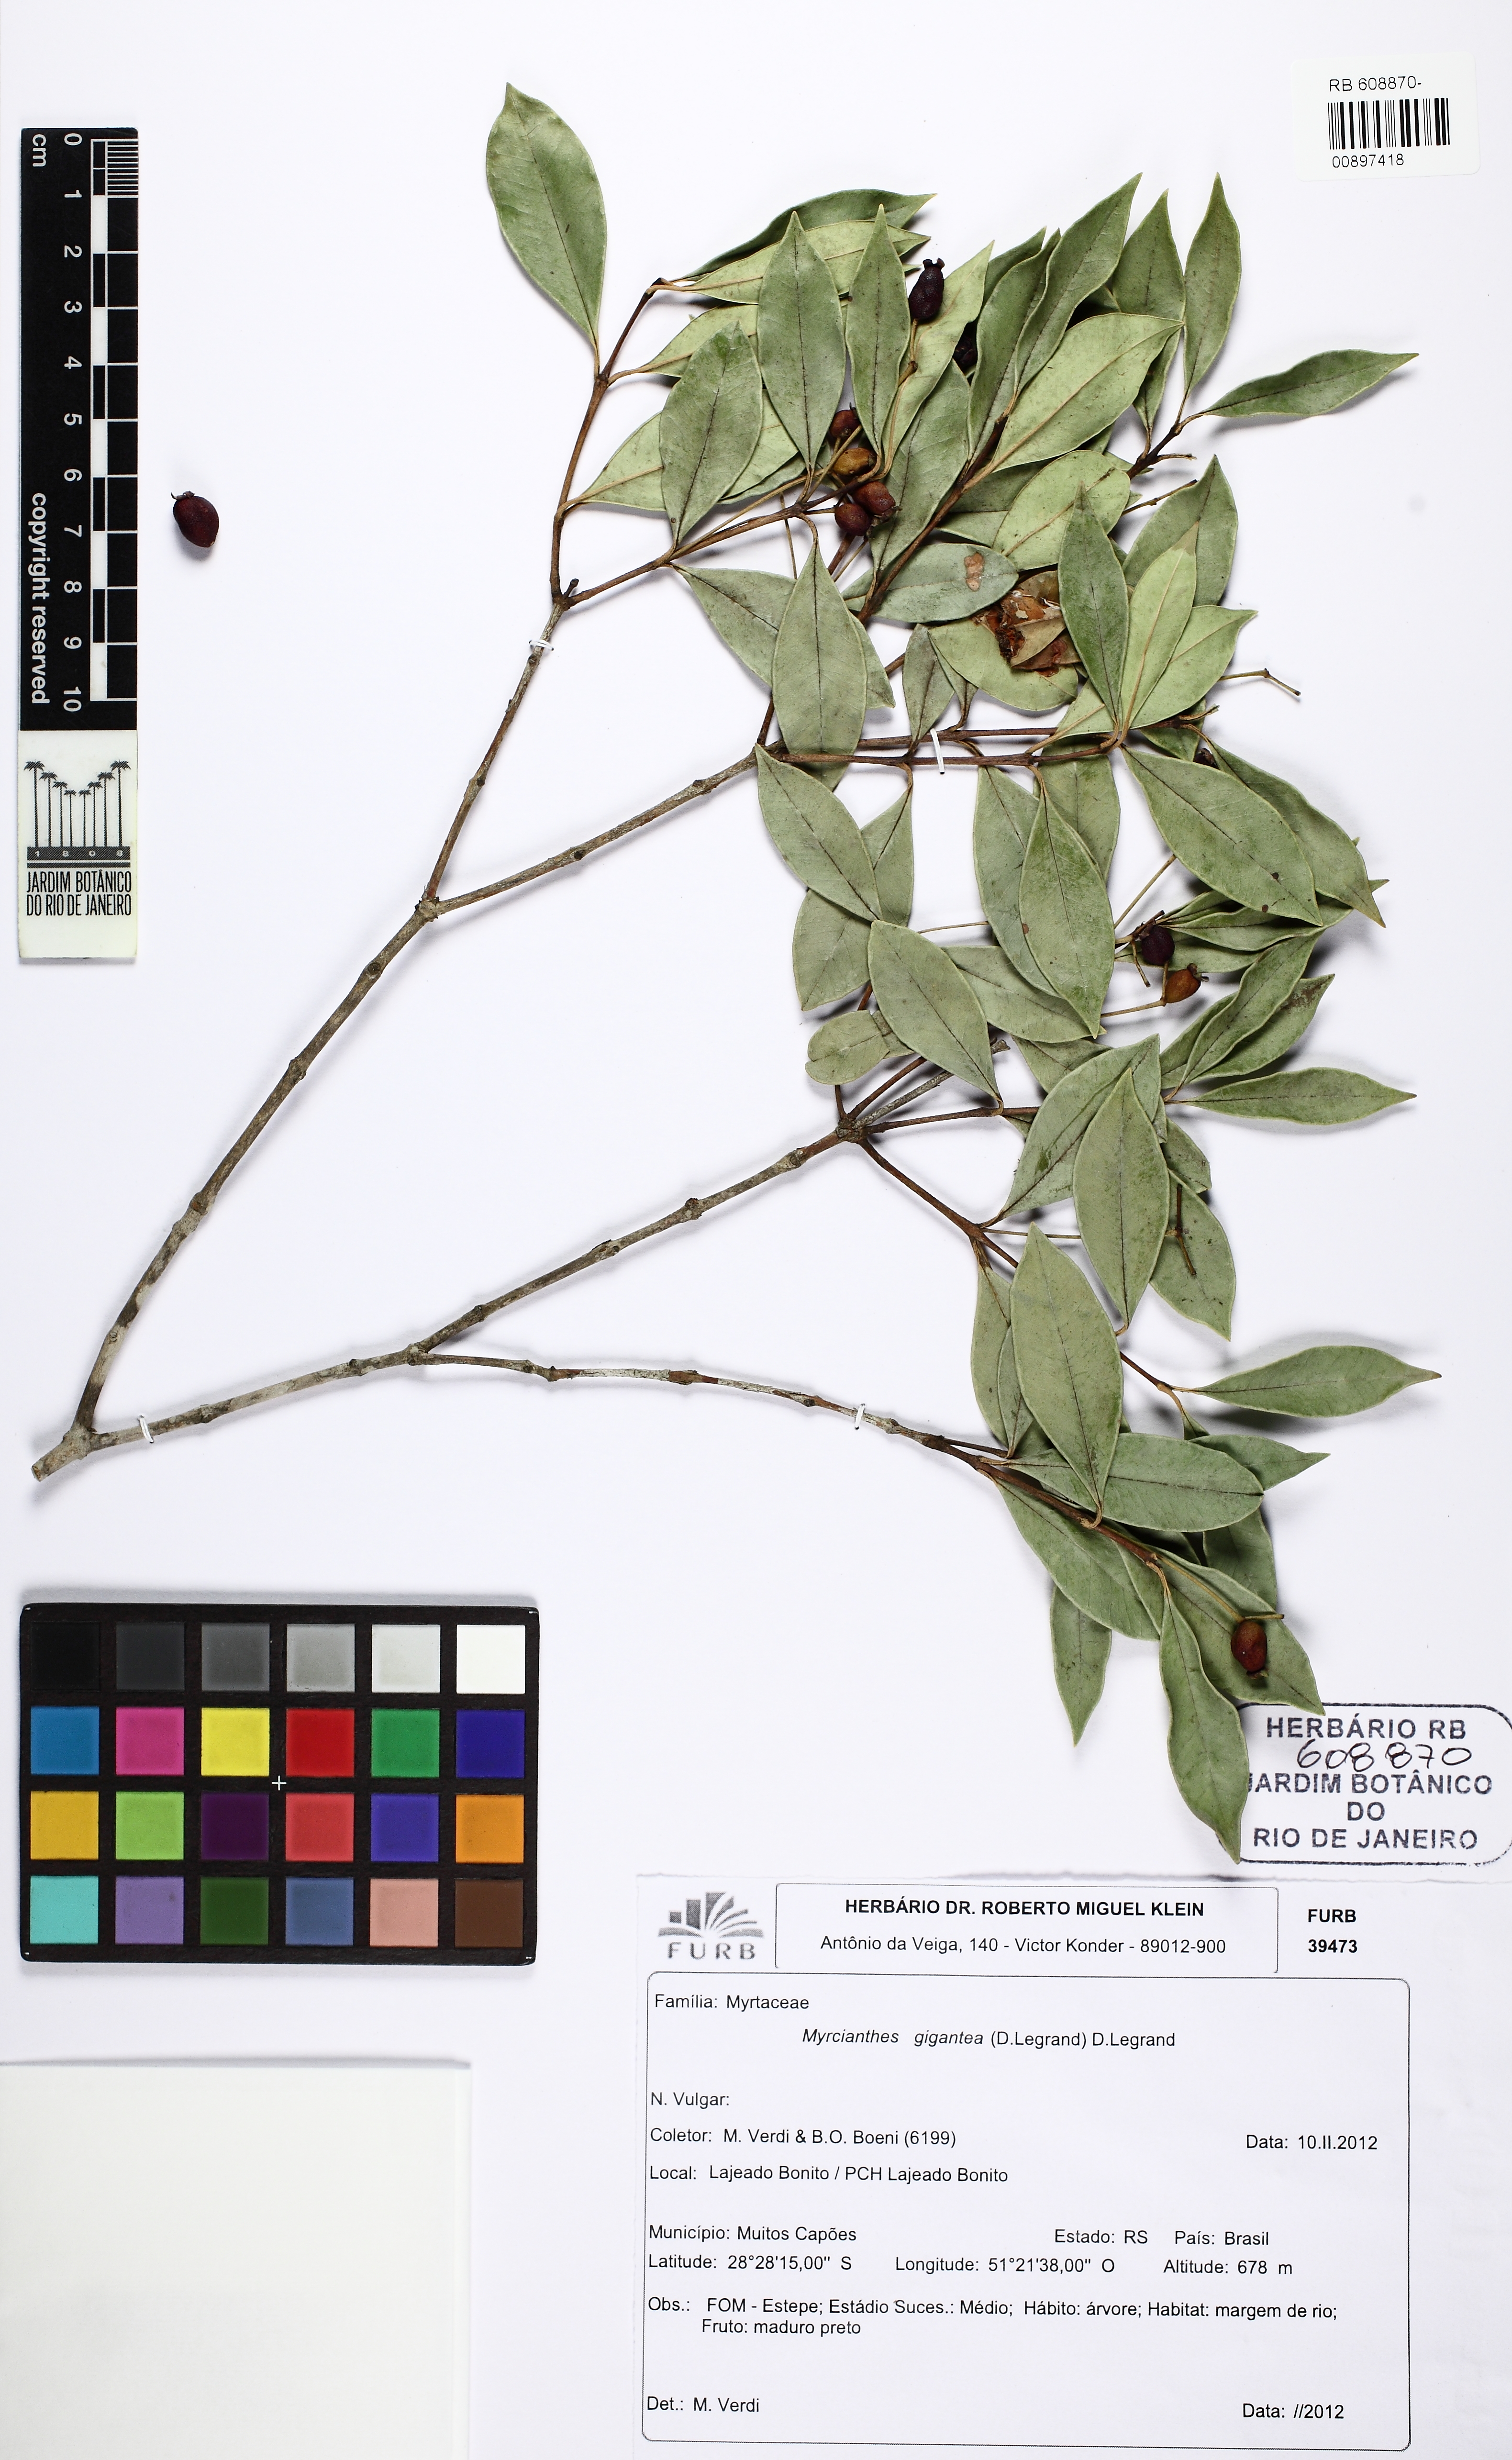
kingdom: Plantae
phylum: Tracheophyta
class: Magnoliopsida
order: Myrtales
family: Myrtaceae
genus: Myrcianthes
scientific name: Myrcianthes gigantea
